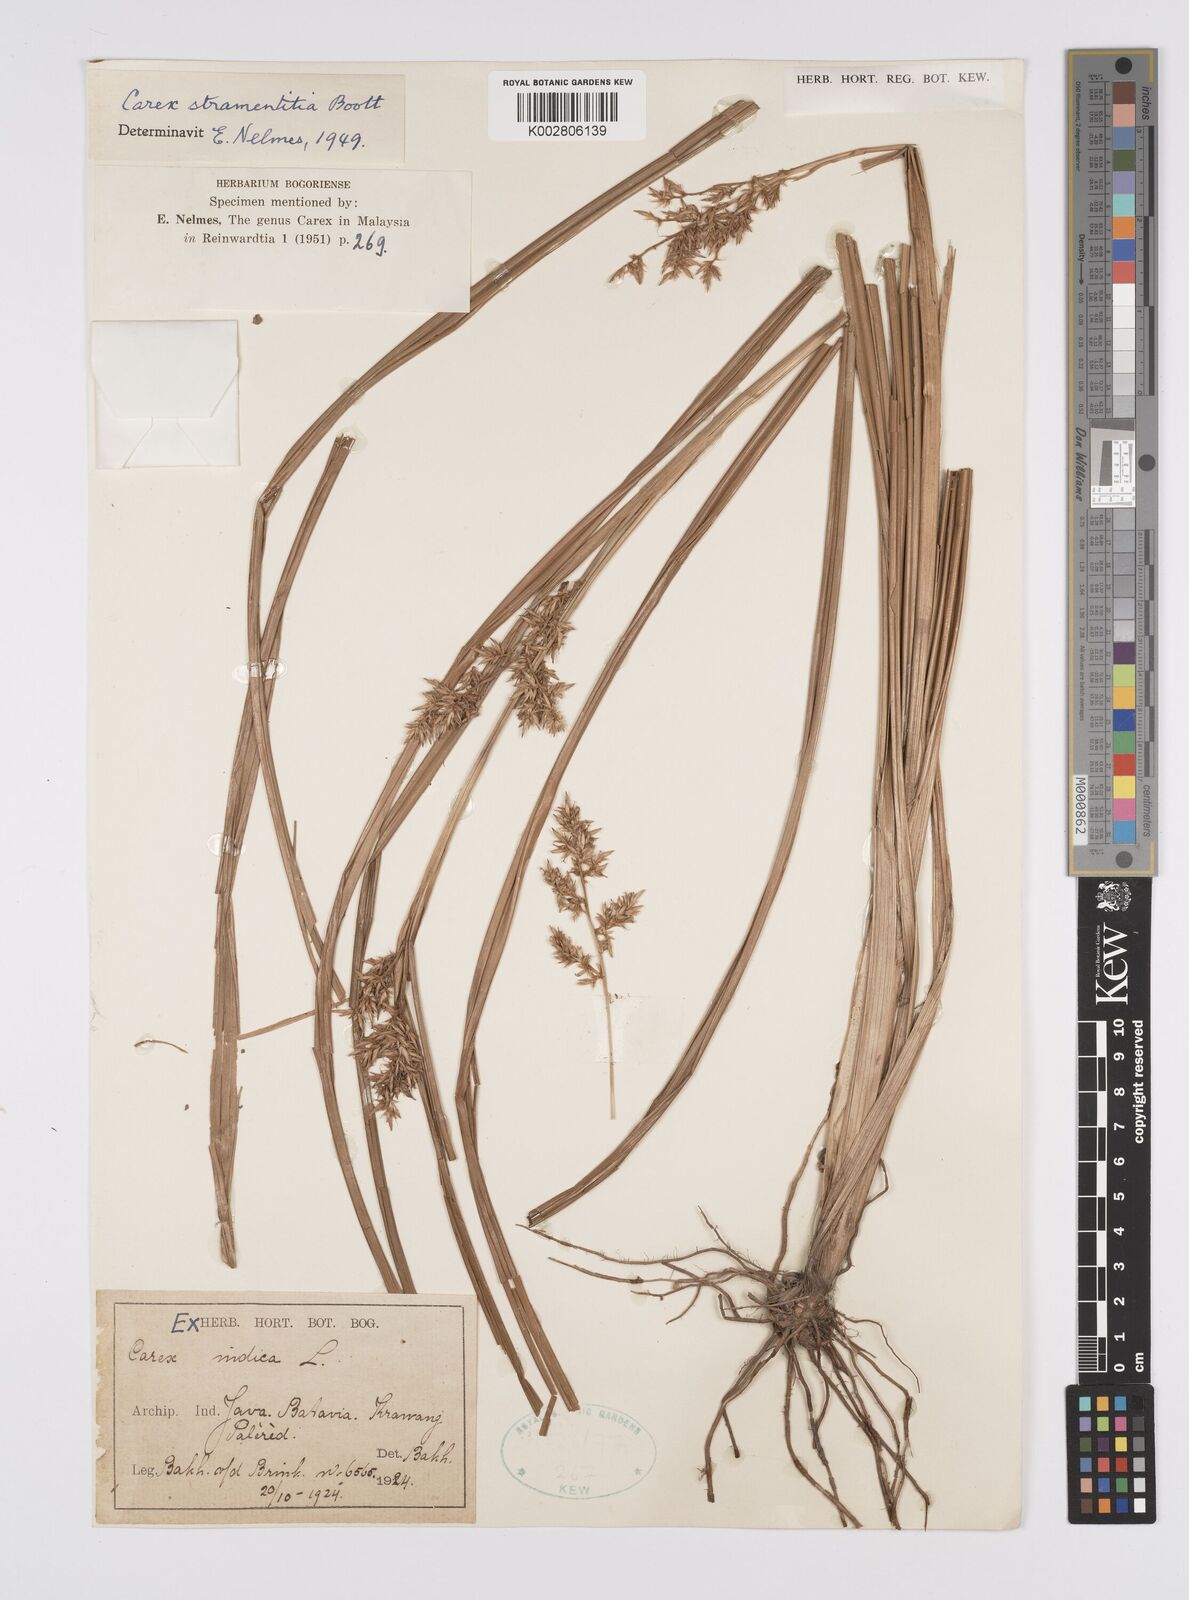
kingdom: Plantae
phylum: Tracheophyta
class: Liliopsida
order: Poales
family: Cyperaceae
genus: Carex
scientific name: Carex stramentitia
